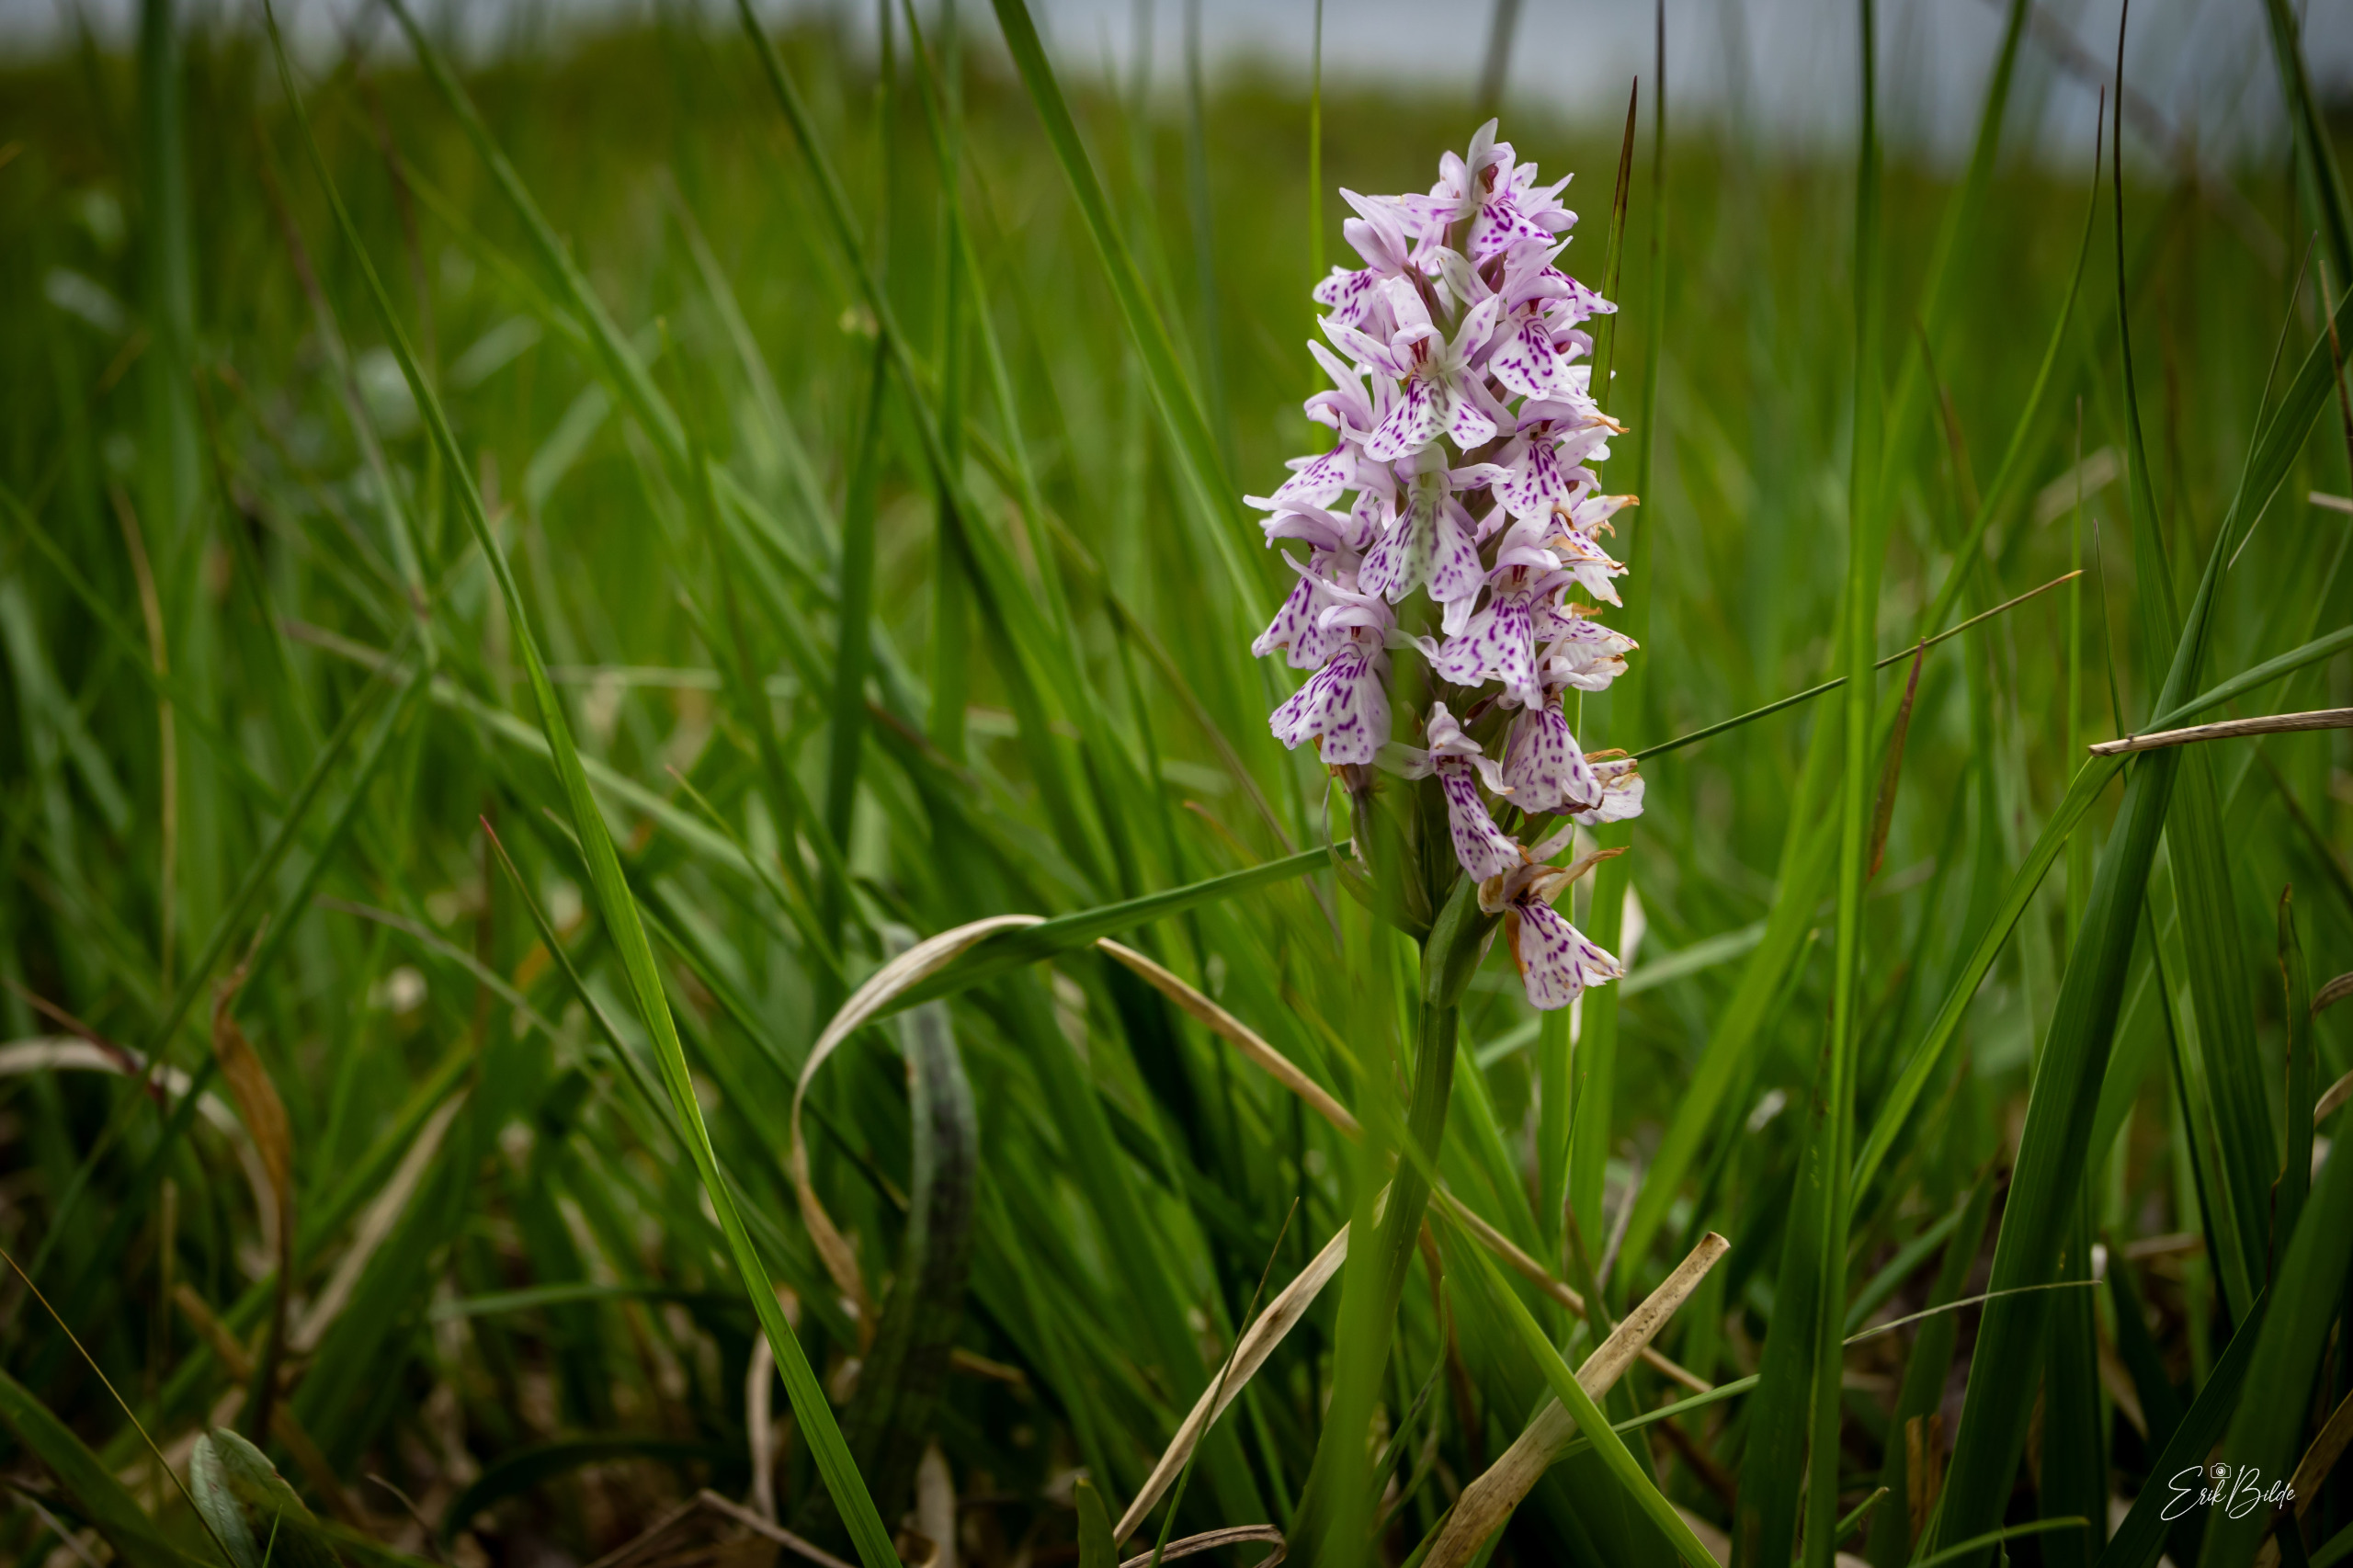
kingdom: Plantae
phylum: Tracheophyta
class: Liliopsida
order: Asparagales
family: Orchidaceae
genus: Dactylorhiza
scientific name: Dactylorhiza maculata
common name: Plettet gøgeurt
